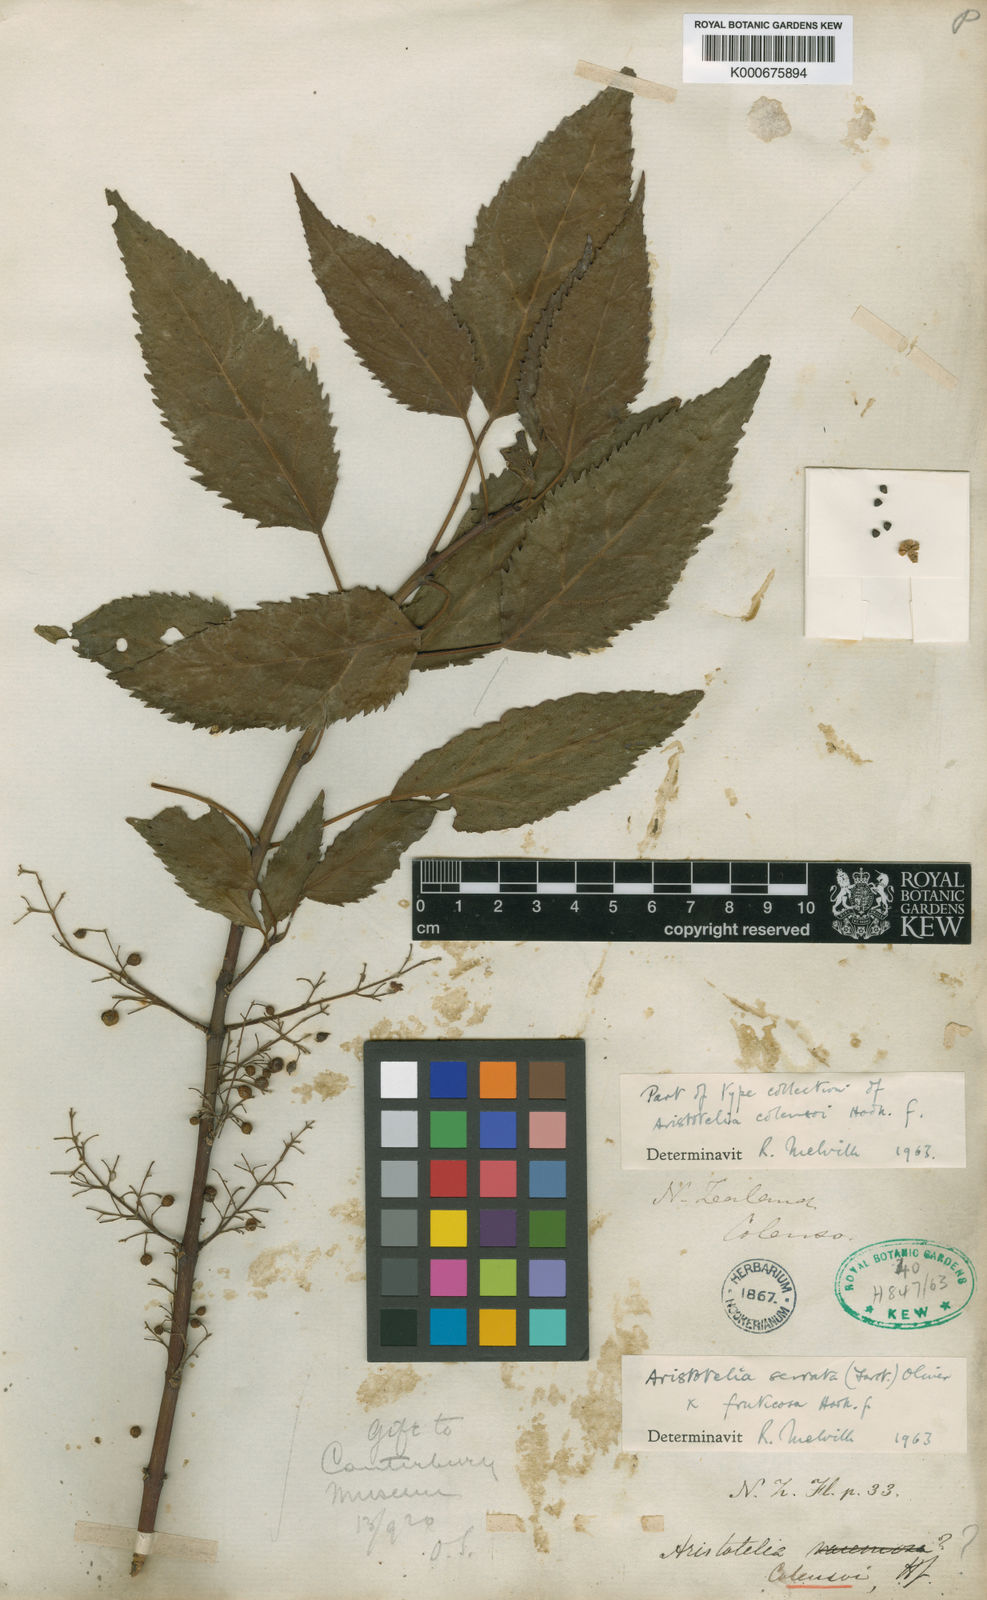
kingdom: Plantae
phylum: Tracheophyta
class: Magnoliopsida
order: Oxalidales
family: Elaeocarpaceae
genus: Aristotelia
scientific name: Aristotelia colensoi
